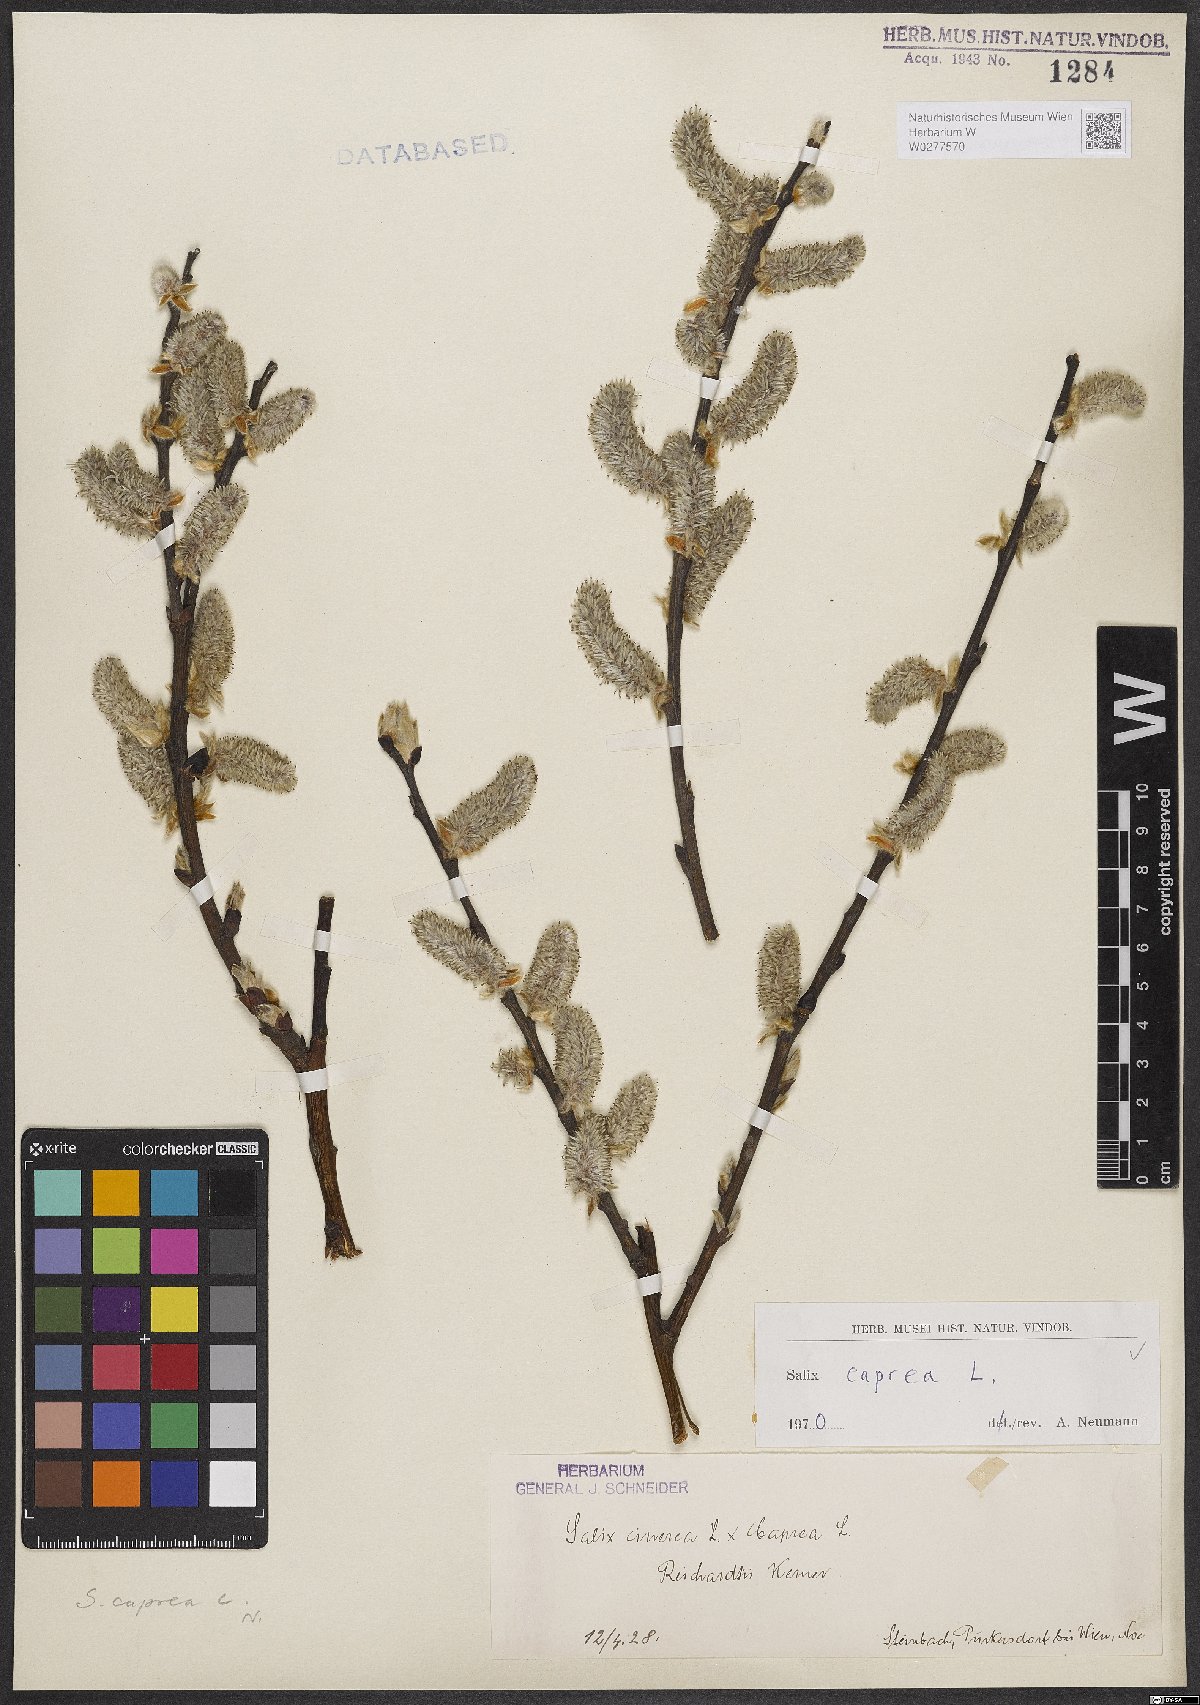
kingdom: Plantae
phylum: Tracheophyta
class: Magnoliopsida
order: Malpighiales
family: Salicaceae
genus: Salix
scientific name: Salix caprea
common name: Goat willow
